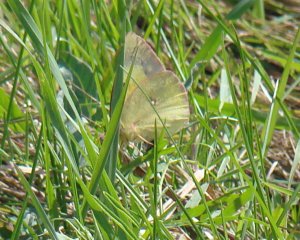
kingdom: Animalia
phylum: Arthropoda
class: Insecta
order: Lepidoptera
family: Pieridae
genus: Colias
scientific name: Colias philodice
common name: Clouded Sulphur
